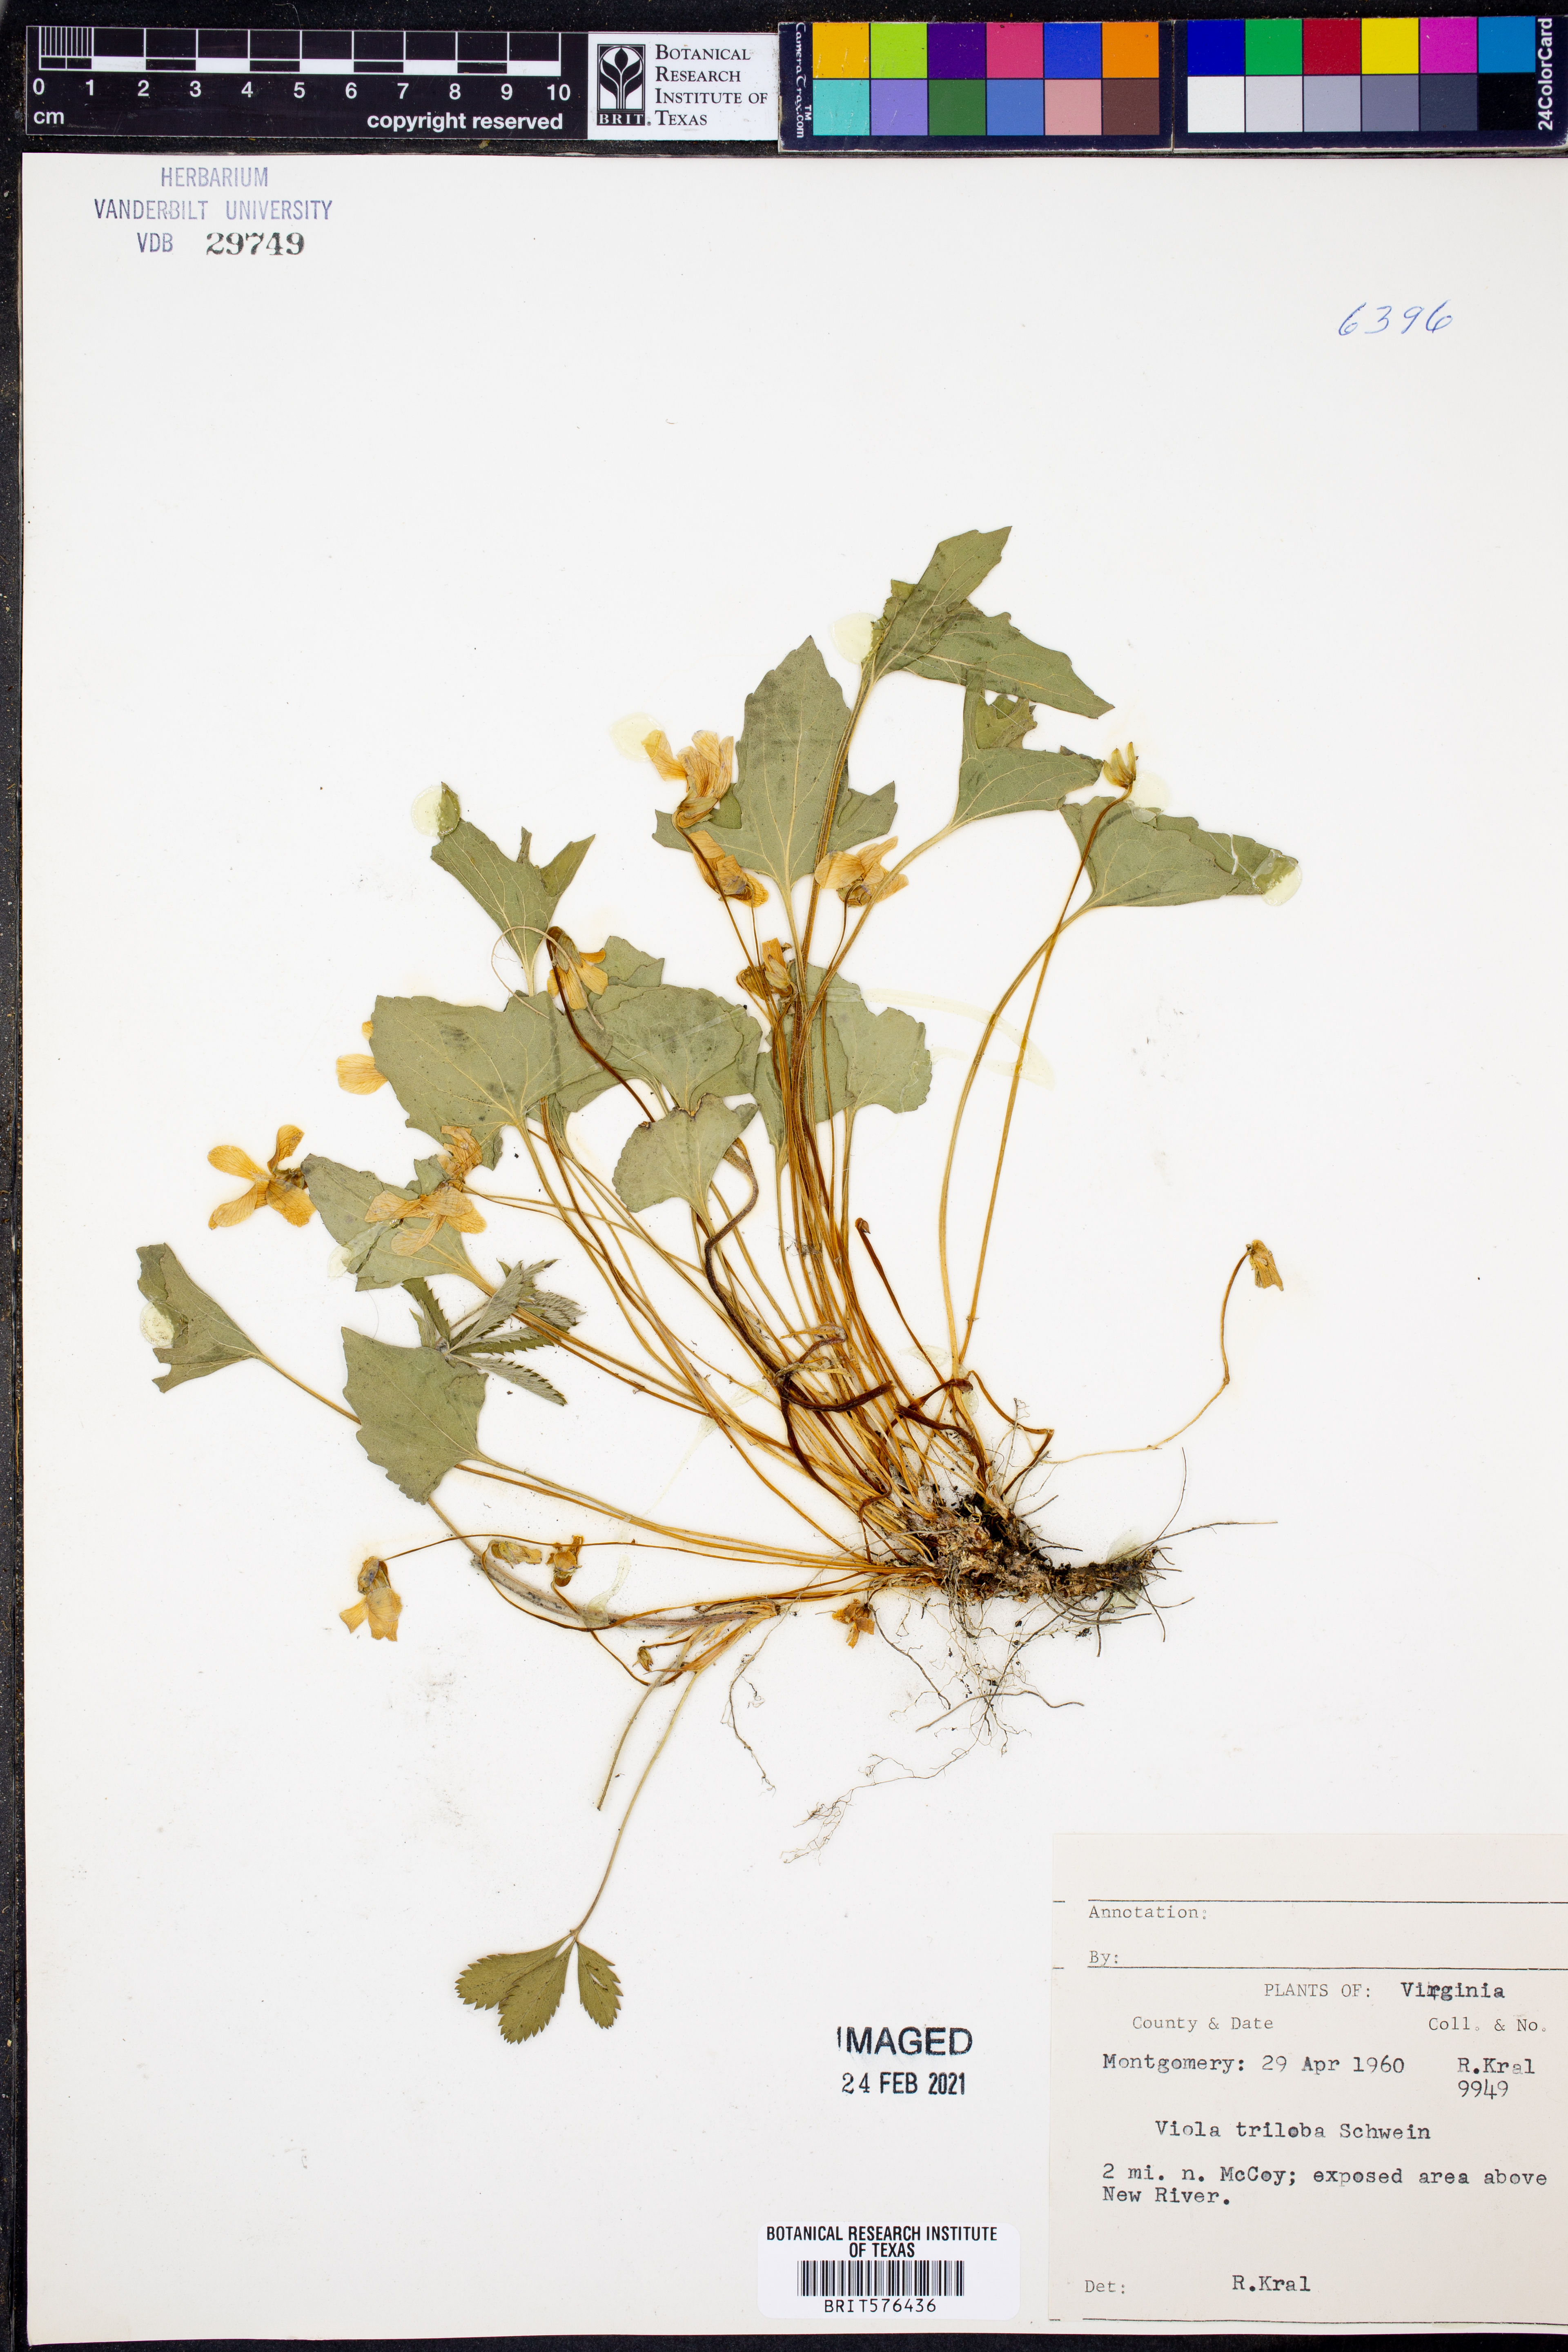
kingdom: Plantae
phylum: Tracheophyta
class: Magnoliopsida
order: Malpighiales
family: Violaceae
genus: Viola
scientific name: Viola palmata
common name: Early blue violet
